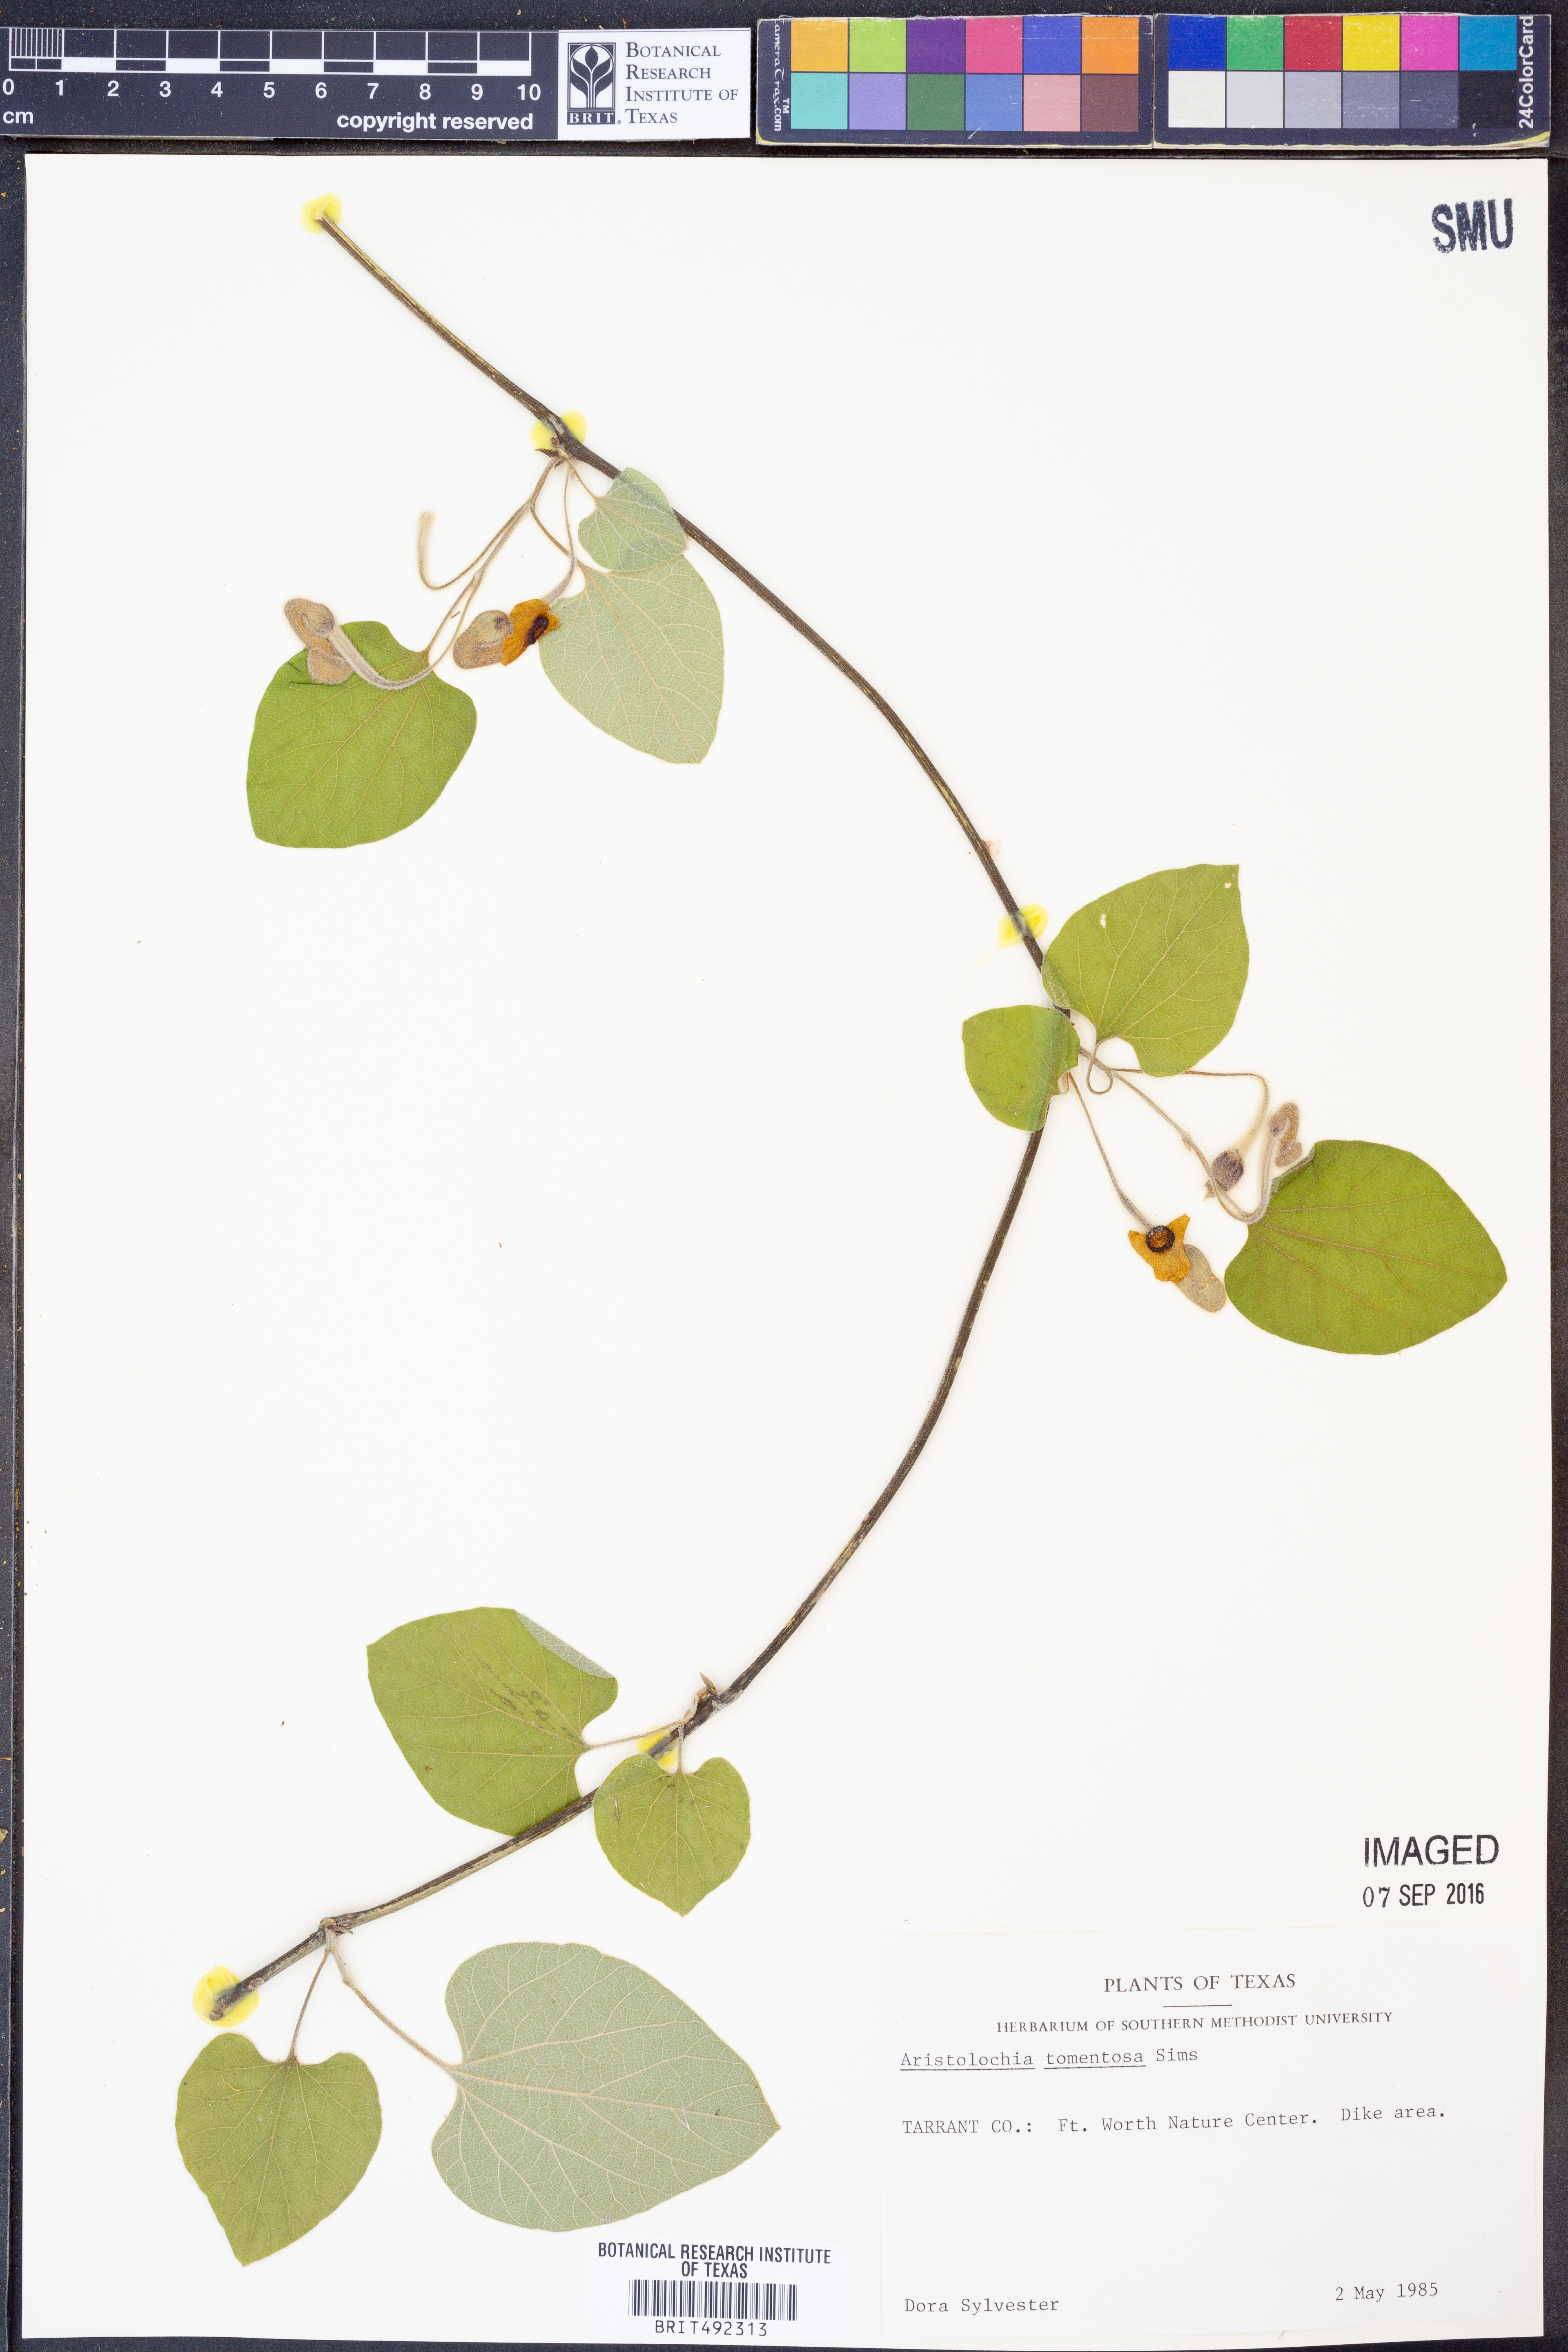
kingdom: Plantae
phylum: Tracheophyta
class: Magnoliopsida
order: Piperales
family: Aristolochiaceae
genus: Isotrema
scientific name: Isotrema tomentosum
